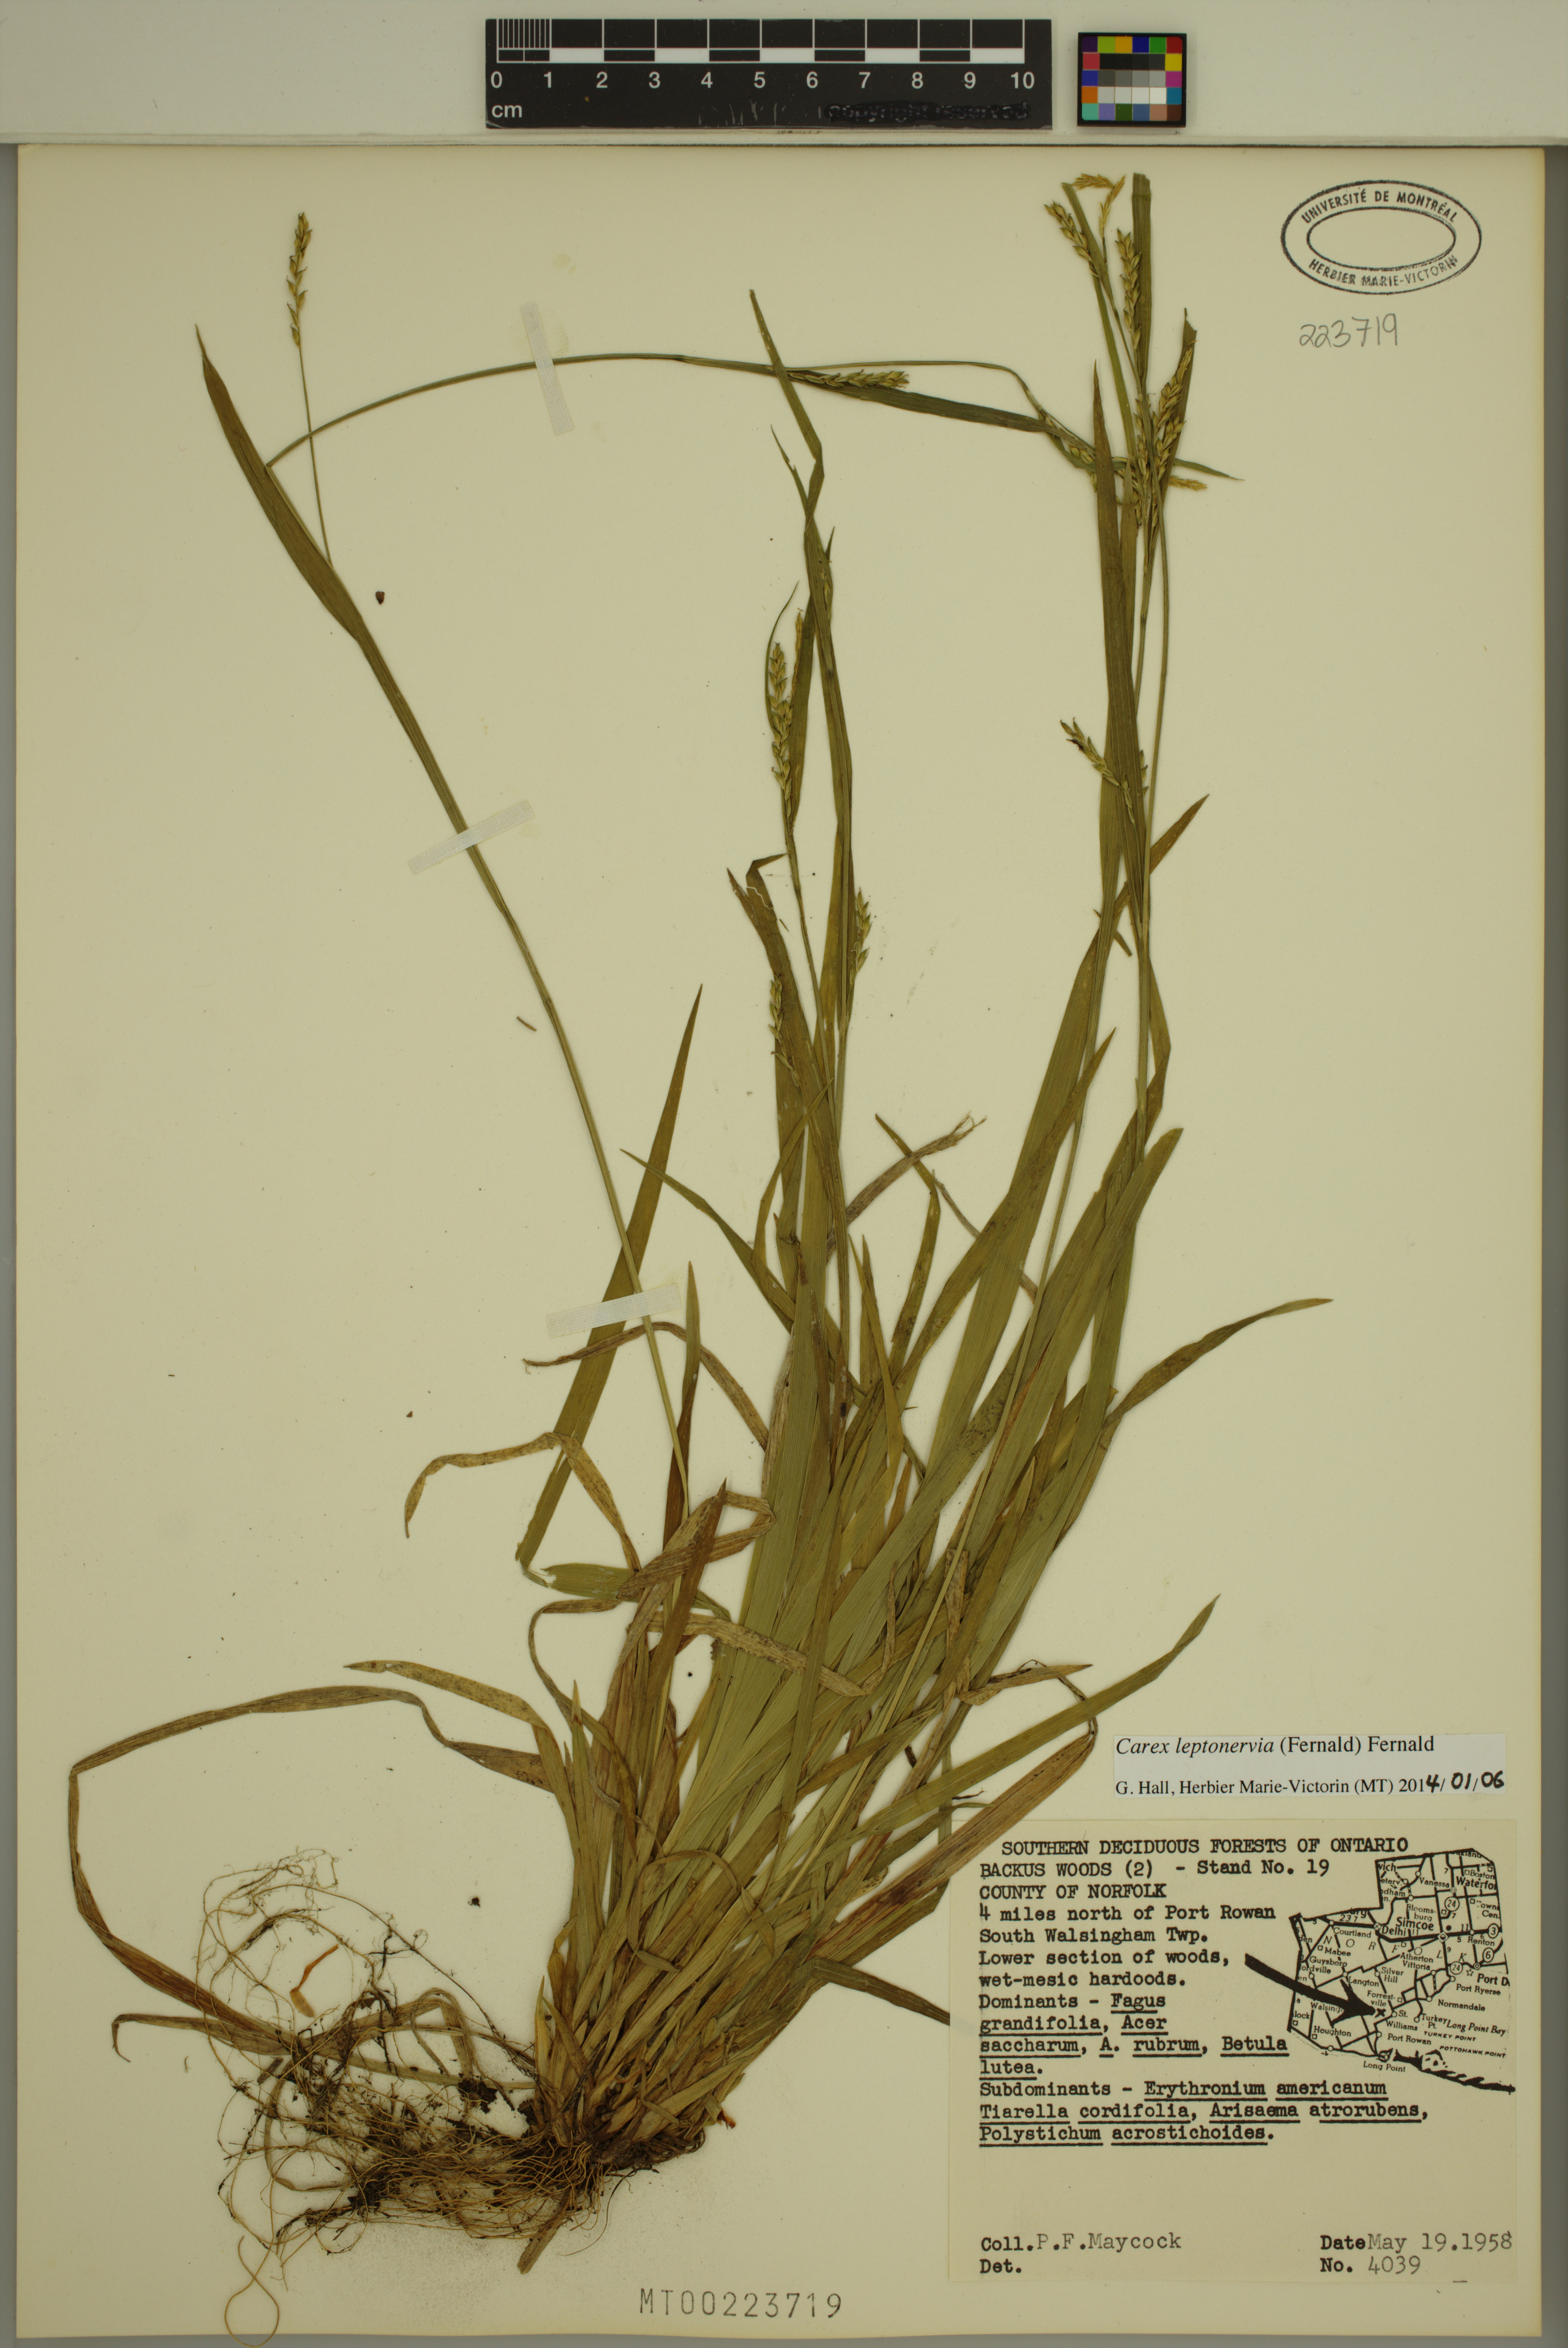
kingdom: Plantae
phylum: Tracheophyta
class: Liliopsida
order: Poales
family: Cyperaceae
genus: Carex
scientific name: Carex leptonervia
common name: Few-nerved wood sedge
